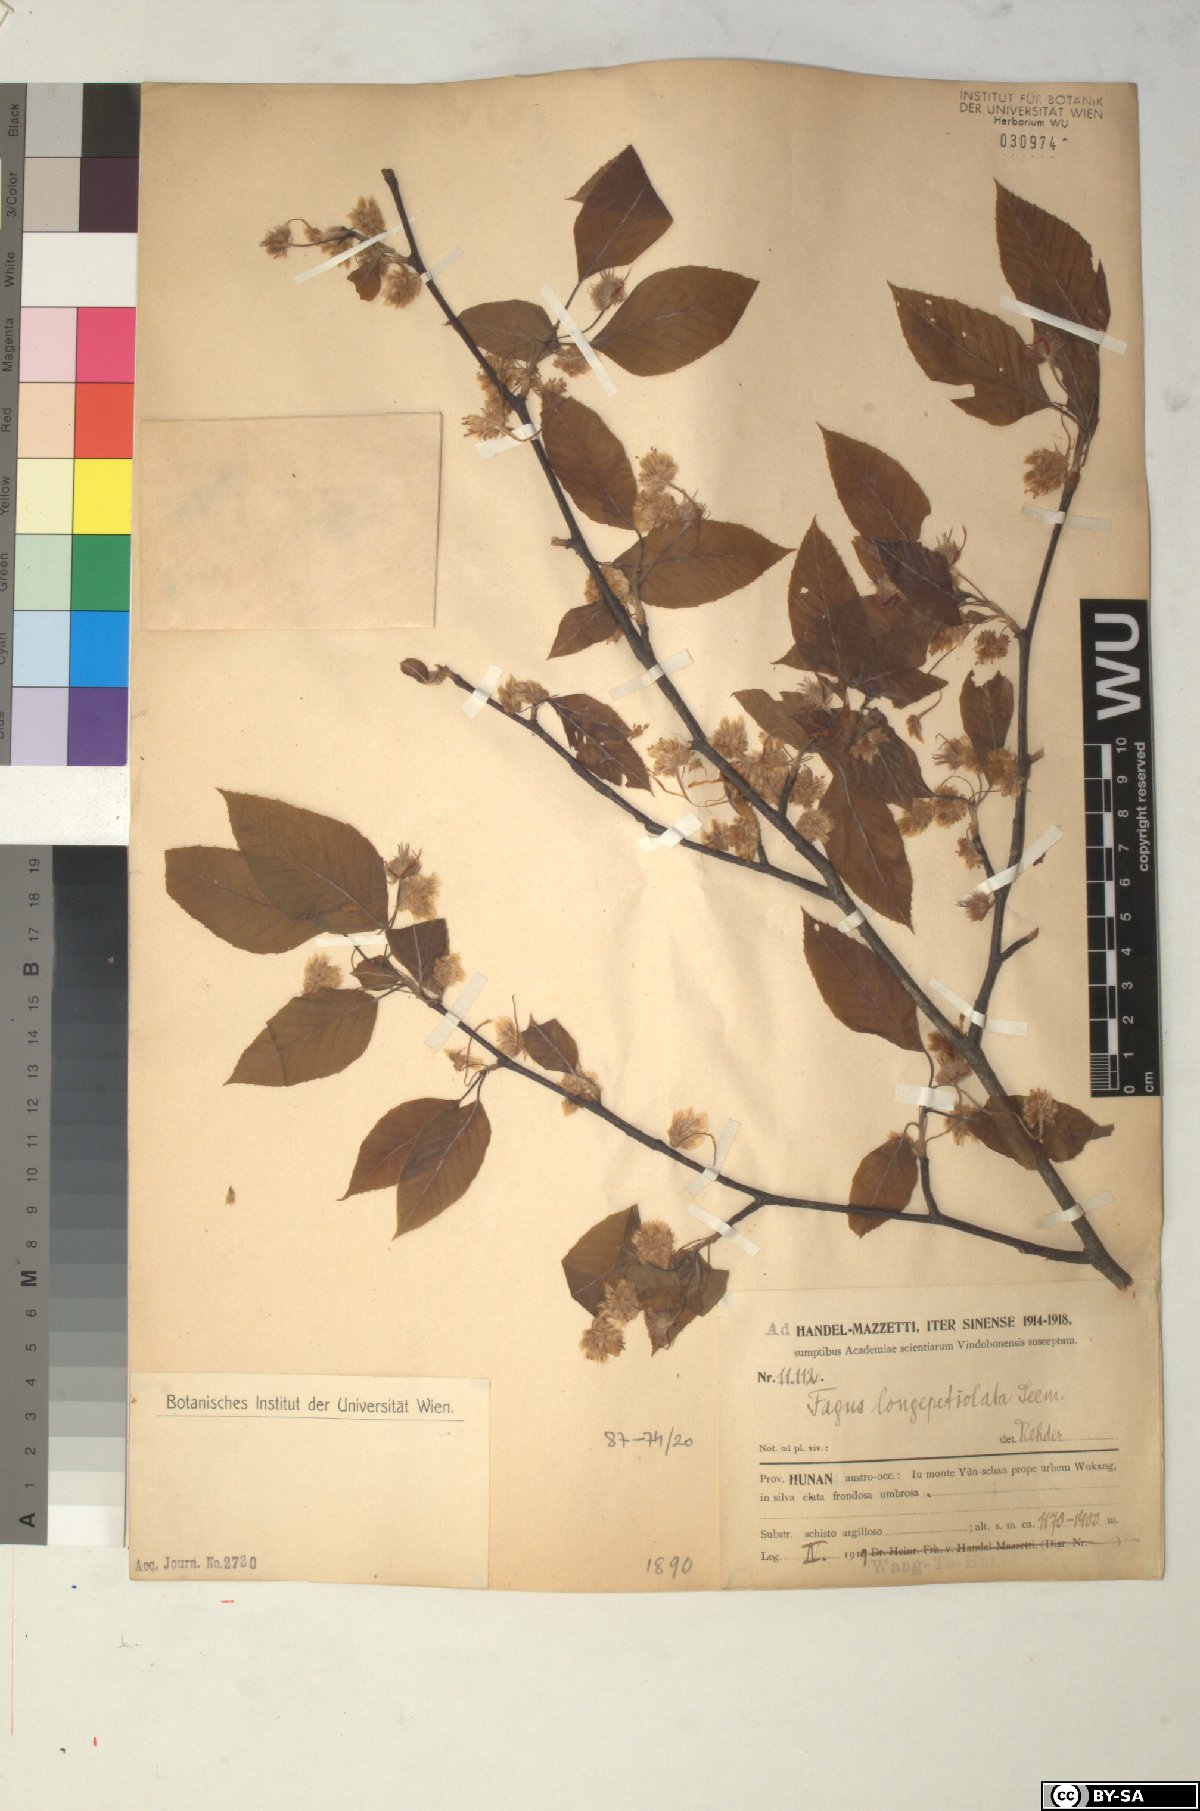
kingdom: Plantae
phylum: Tracheophyta
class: Magnoliopsida
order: Fagales
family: Fagaceae
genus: Fagus
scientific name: Fagus sinensis
